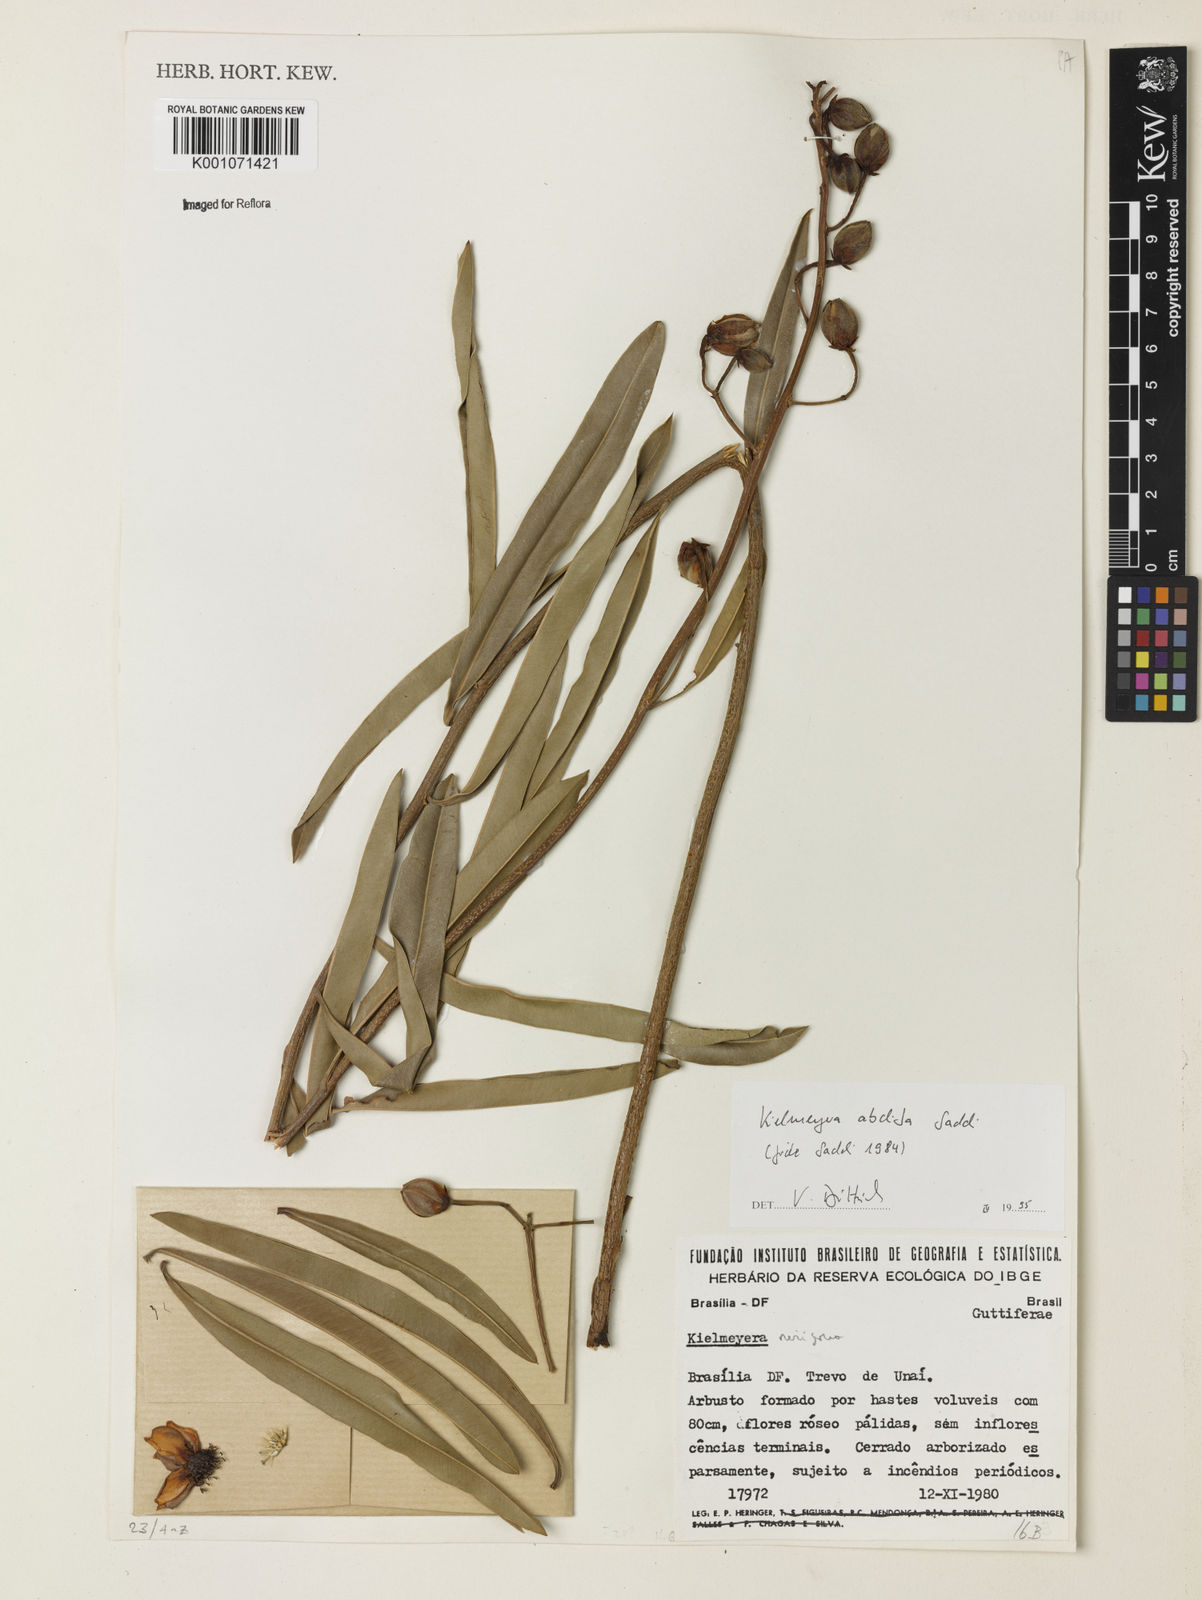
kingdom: Plantae
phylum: Tracheophyta
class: Magnoliopsida
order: Malpighiales
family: Calophyllaceae
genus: Kielmeyera
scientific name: Kielmeyera abdita
